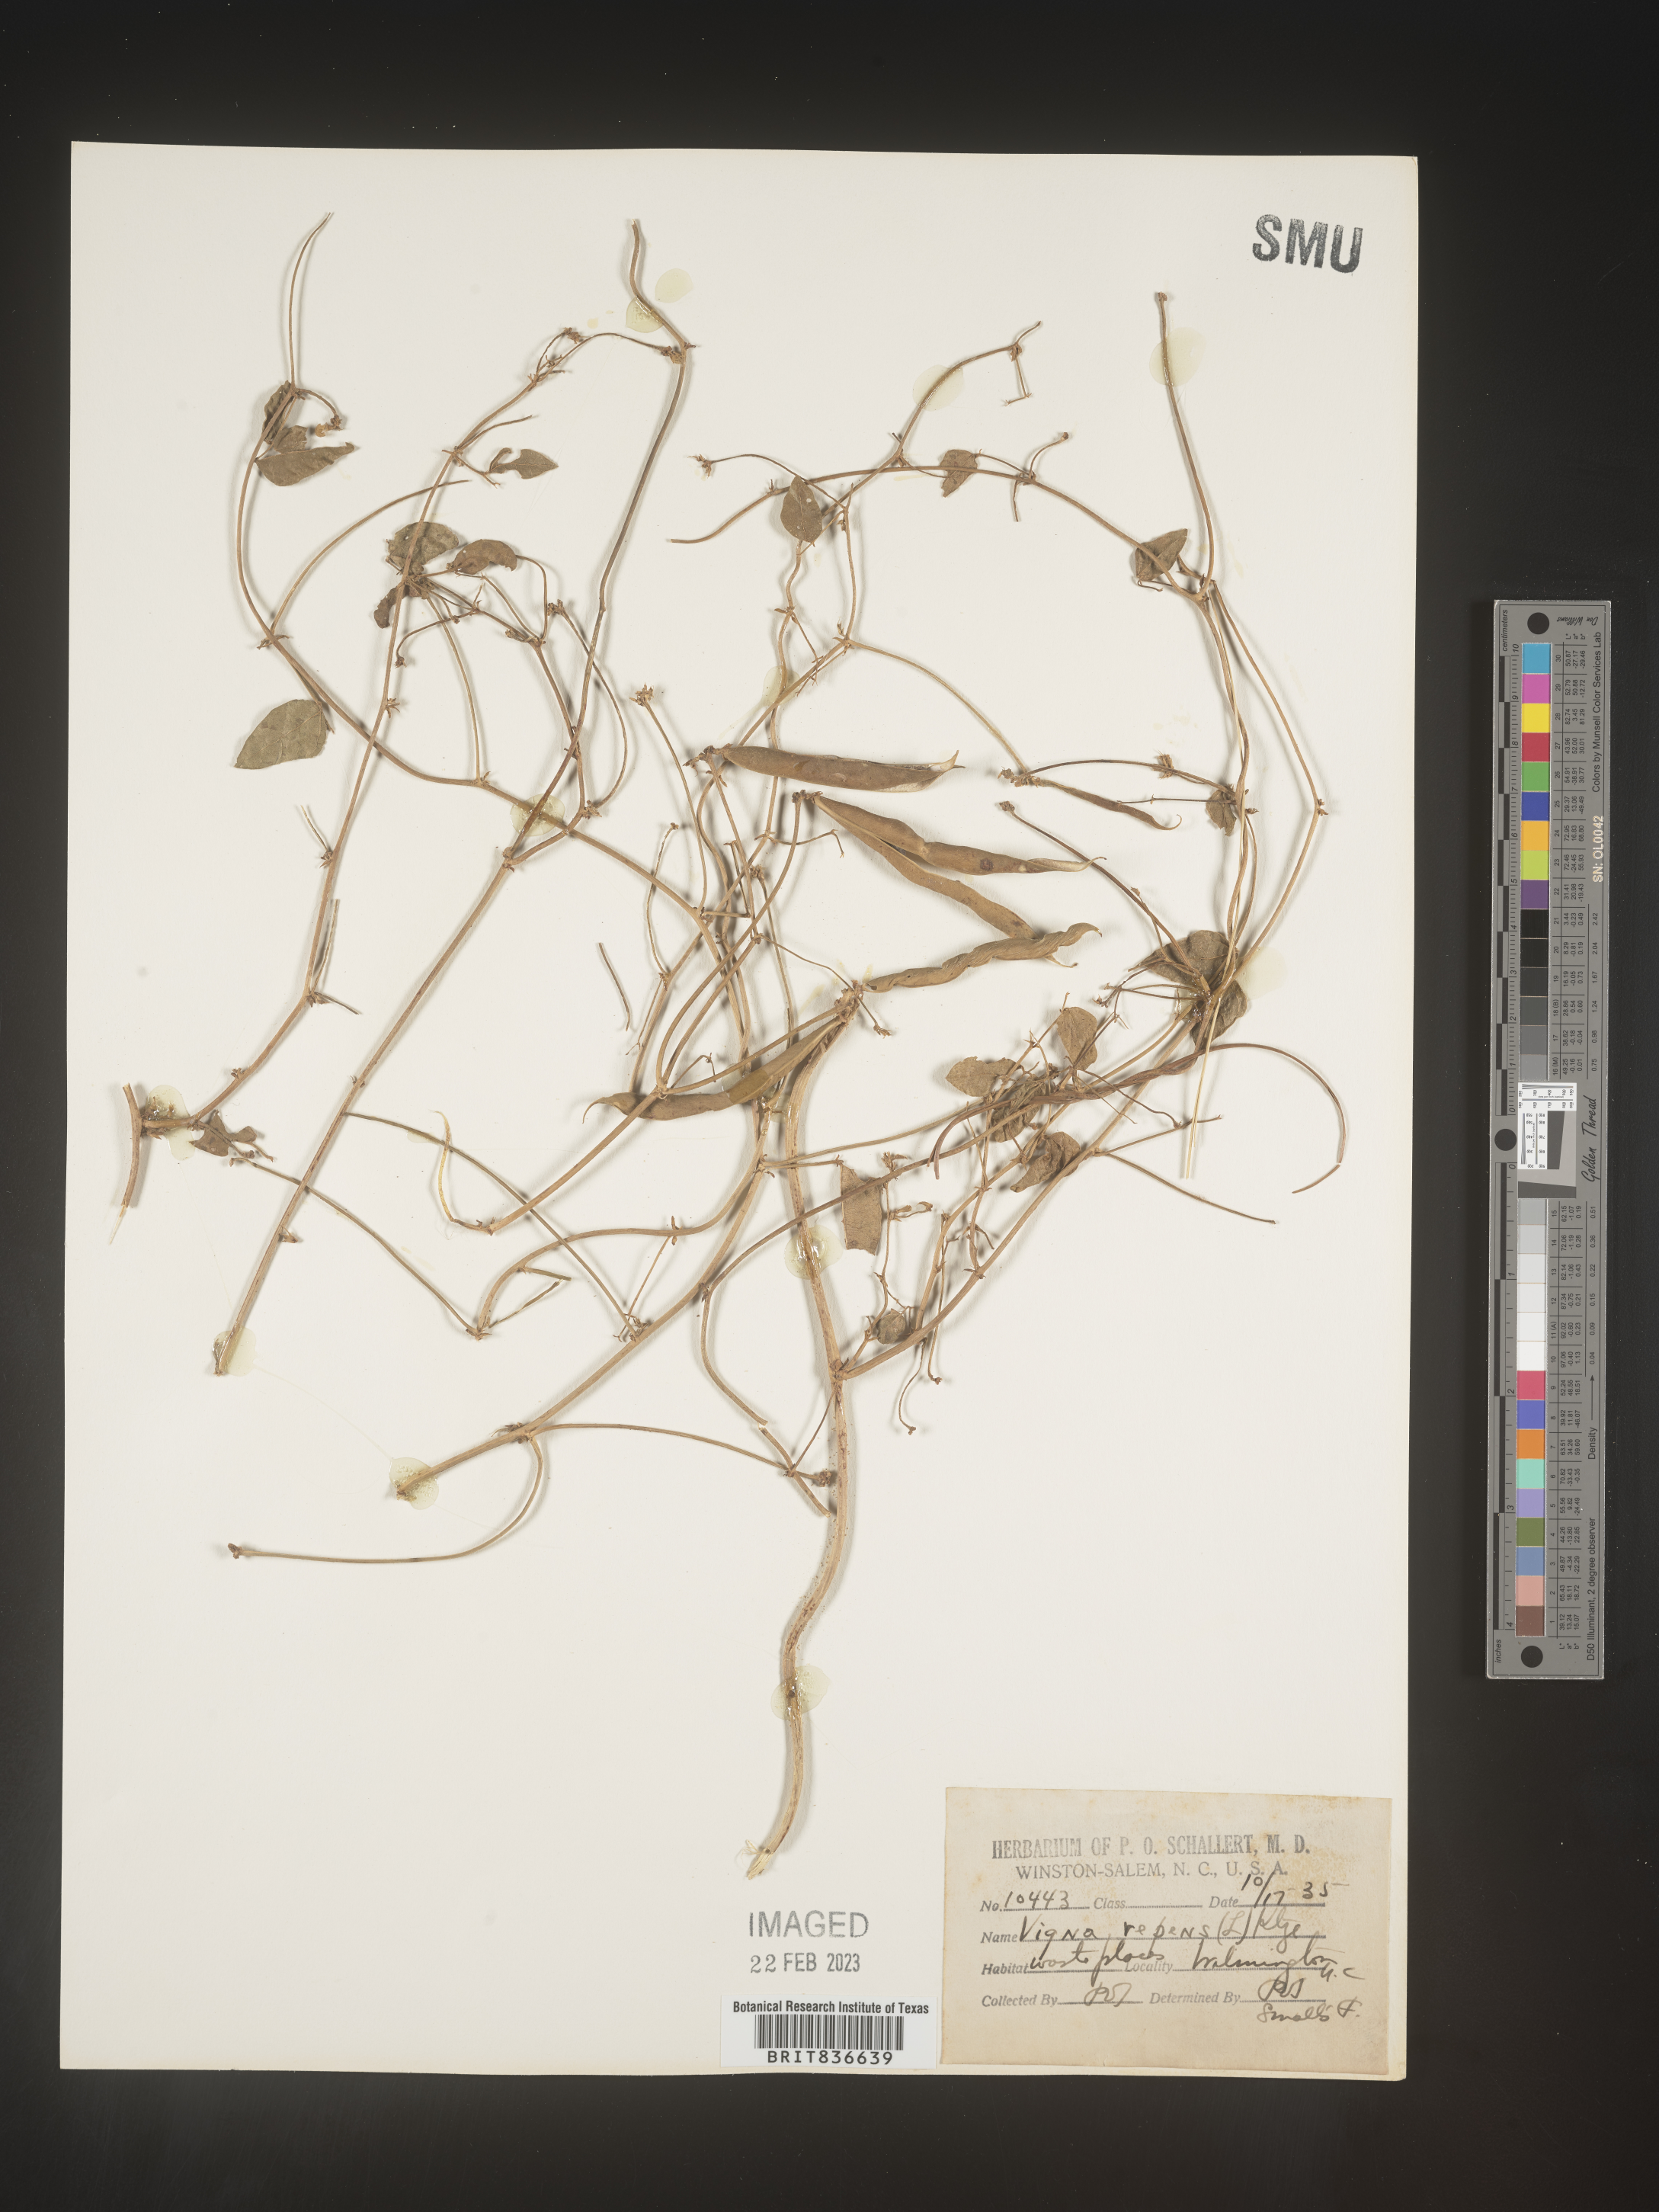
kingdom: Plantae
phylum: Tracheophyta
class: Magnoliopsida
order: Fabales
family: Fabaceae
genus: Vigna
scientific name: Vigna
